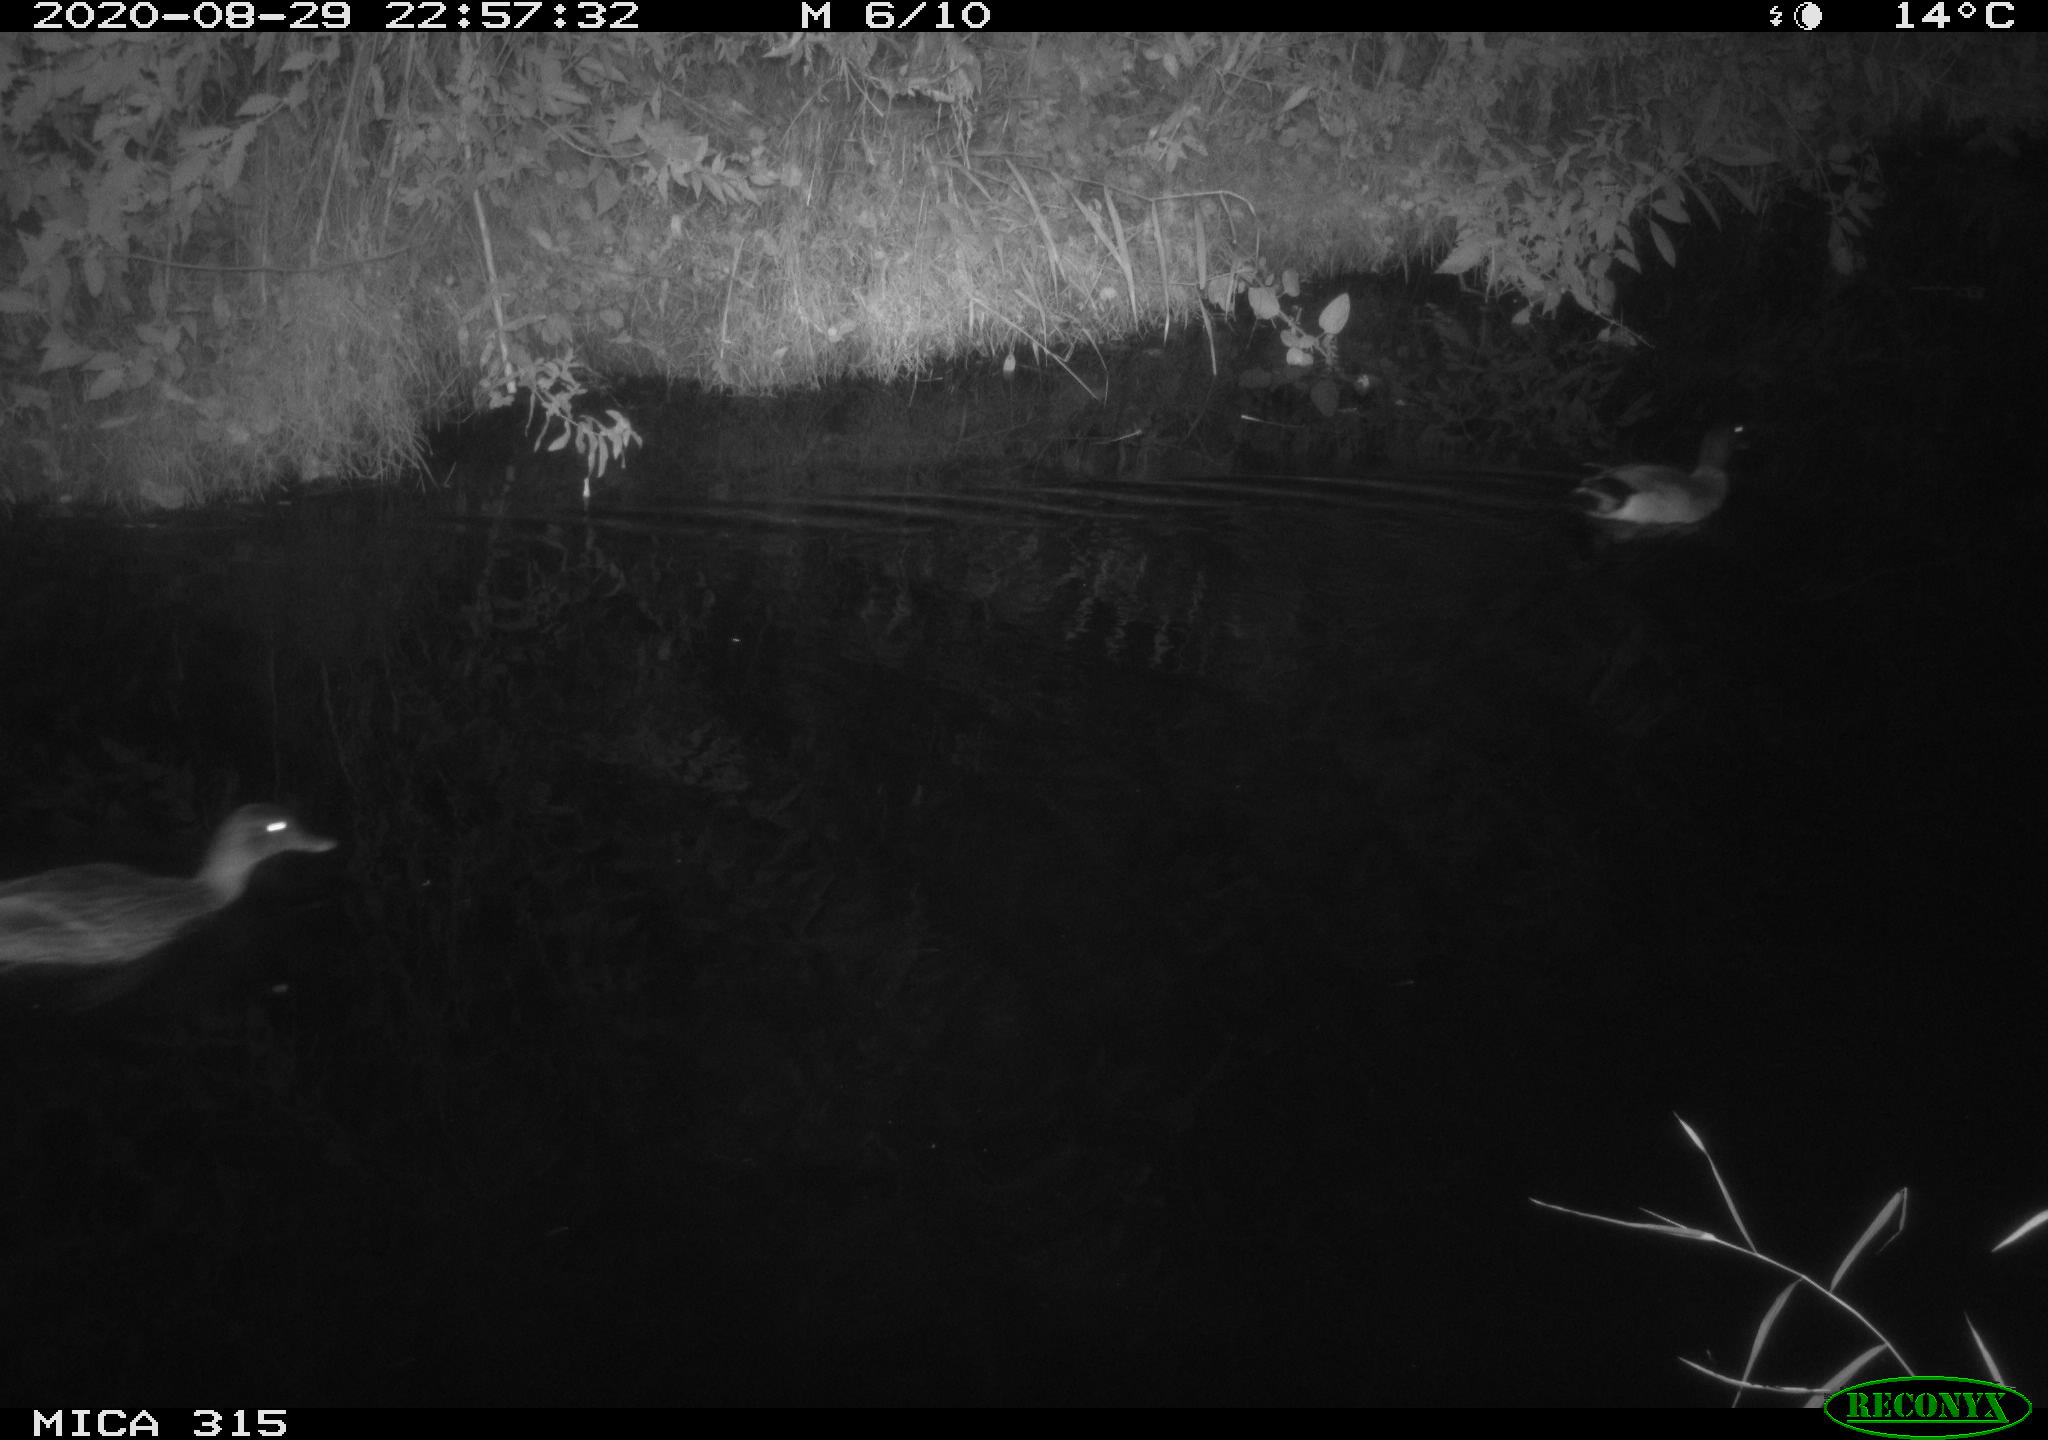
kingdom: Animalia
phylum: Chordata
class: Aves
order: Anseriformes
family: Anatidae
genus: Anas
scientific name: Anas platyrhynchos
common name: Mallard
